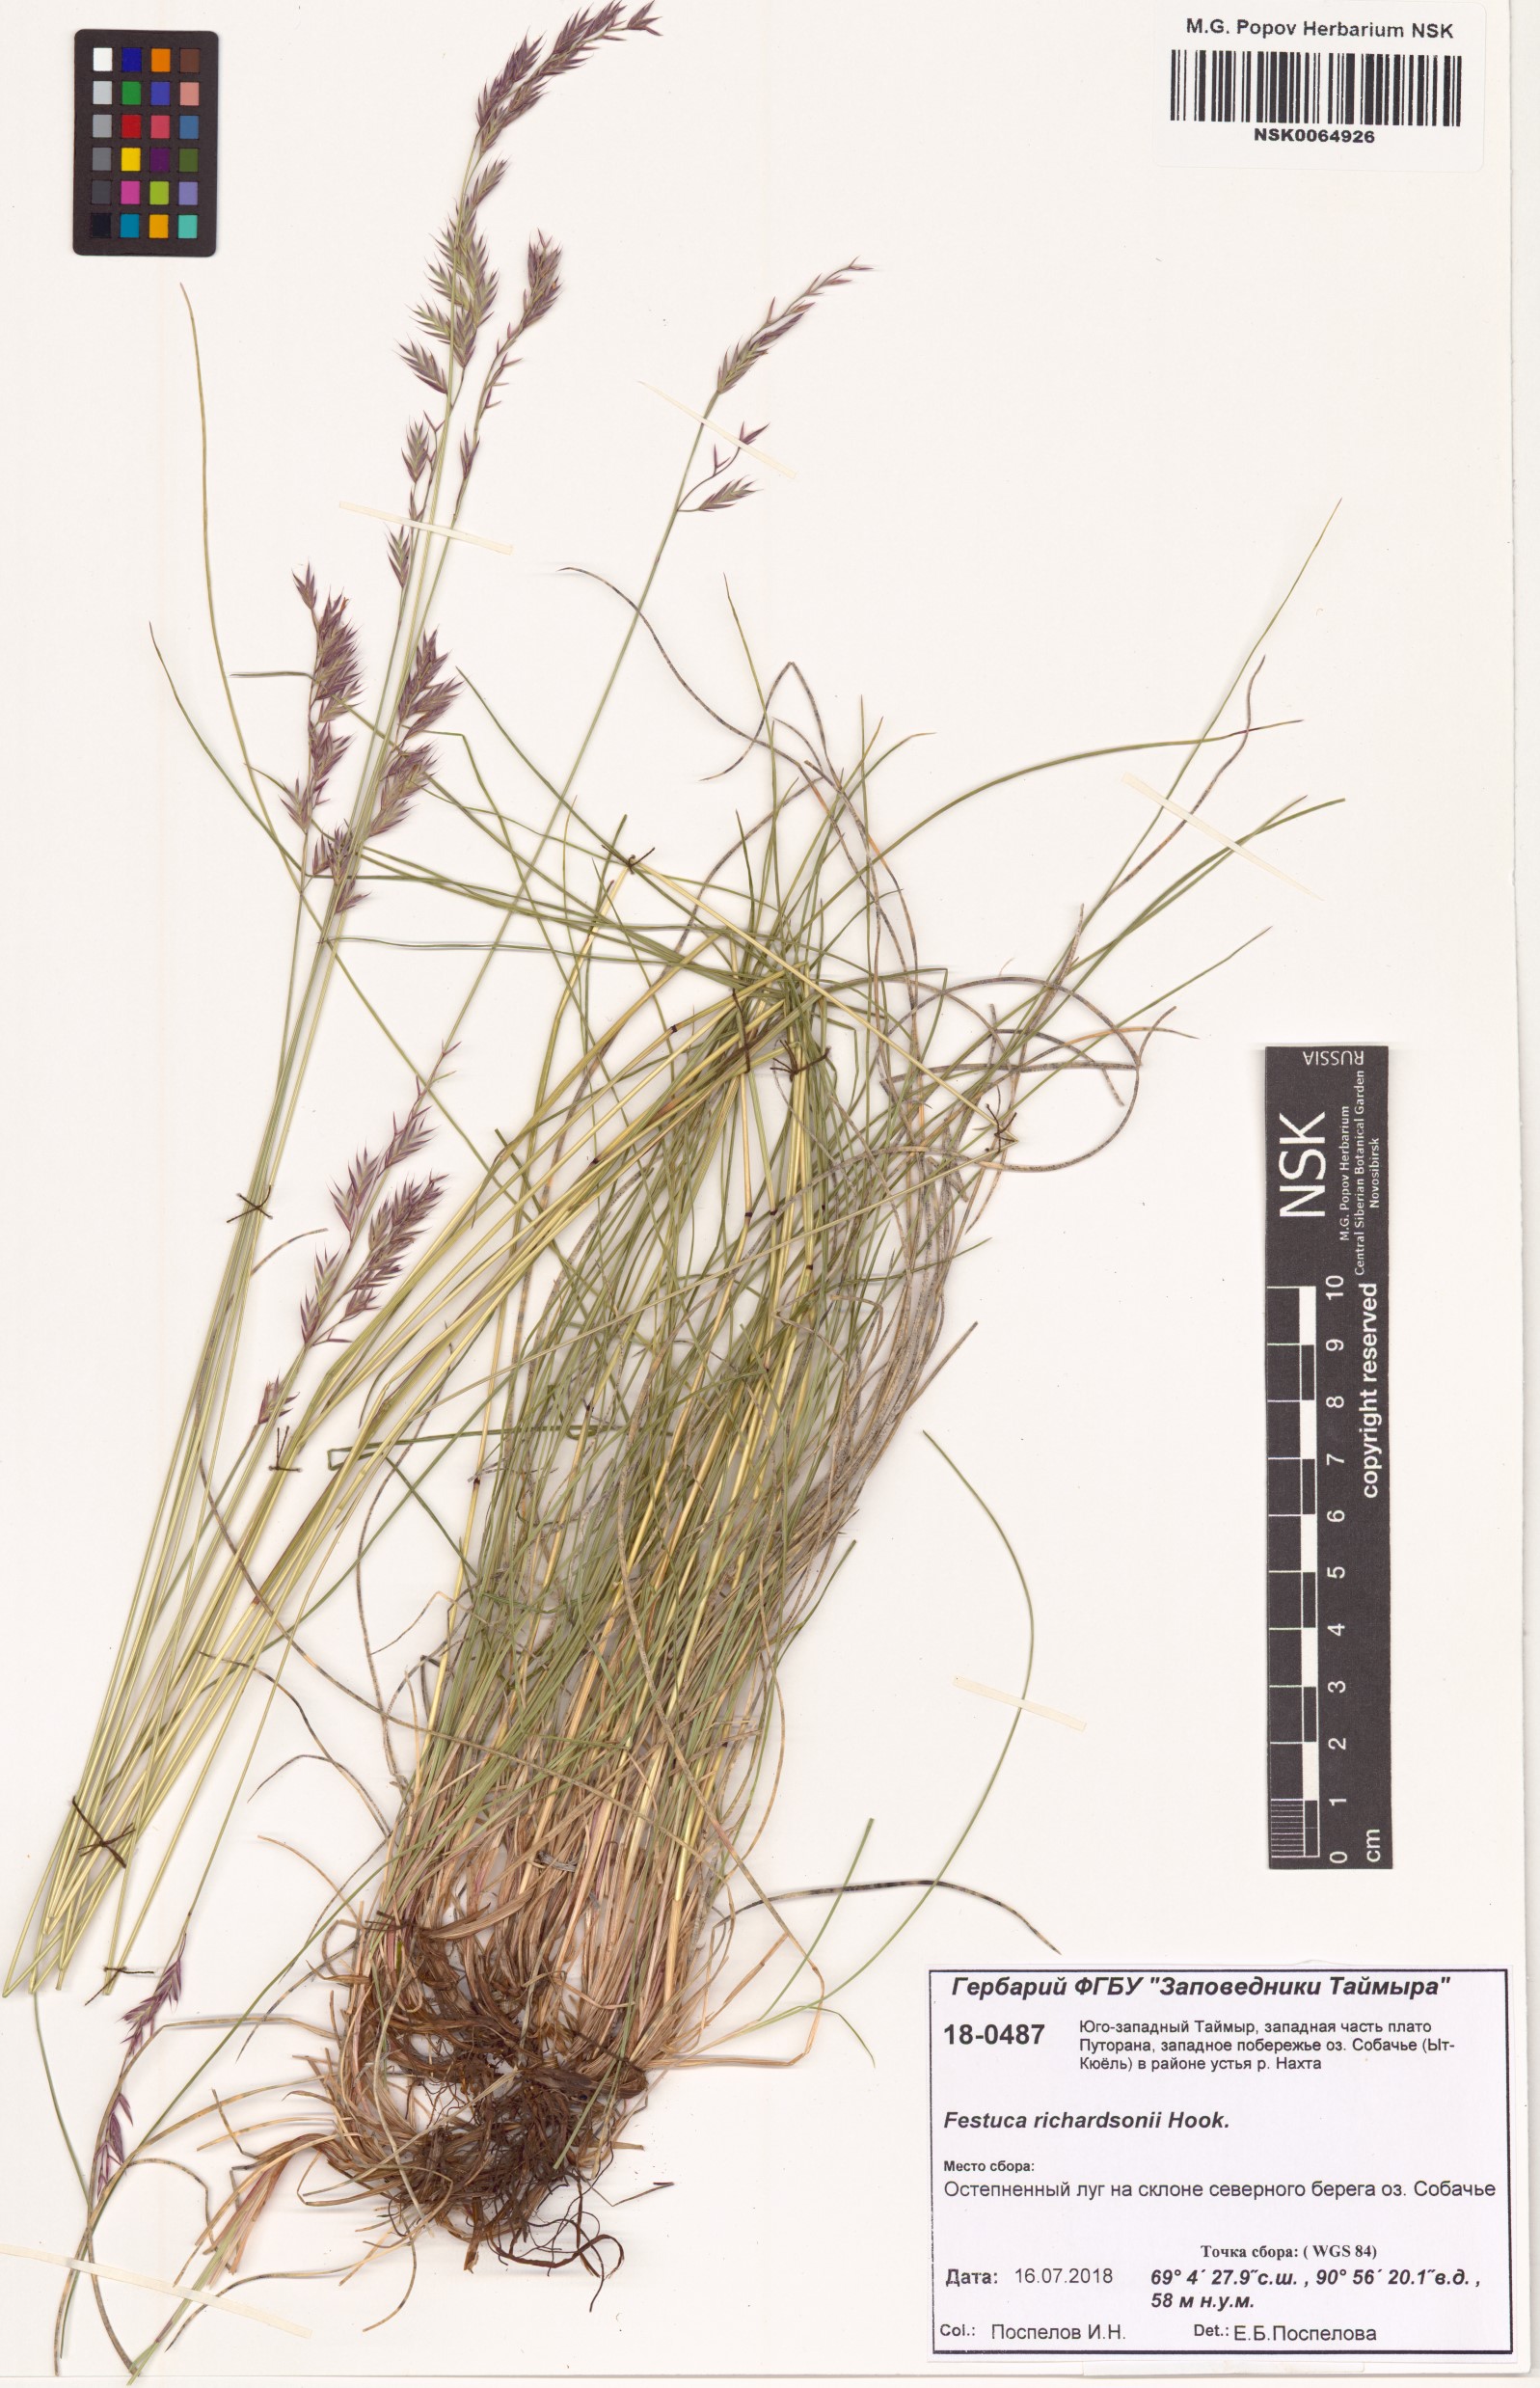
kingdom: Plantae
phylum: Tracheophyta
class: Liliopsida
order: Poales
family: Poaceae
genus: Festuca
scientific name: Festuca richardsonii
